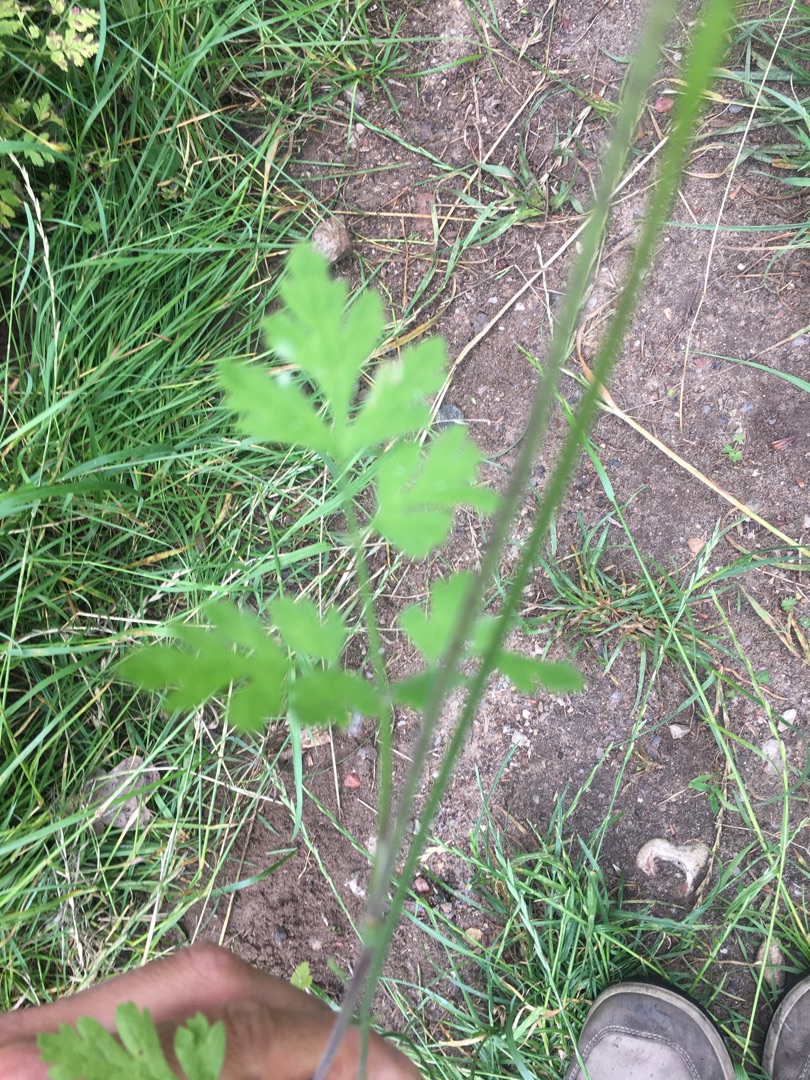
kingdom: Plantae
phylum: Tracheophyta
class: Magnoliopsida
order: Apiales
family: Apiaceae
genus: Chaerophyllum
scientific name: Chaerophyllum temulum
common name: Almindelig hulsvøb
